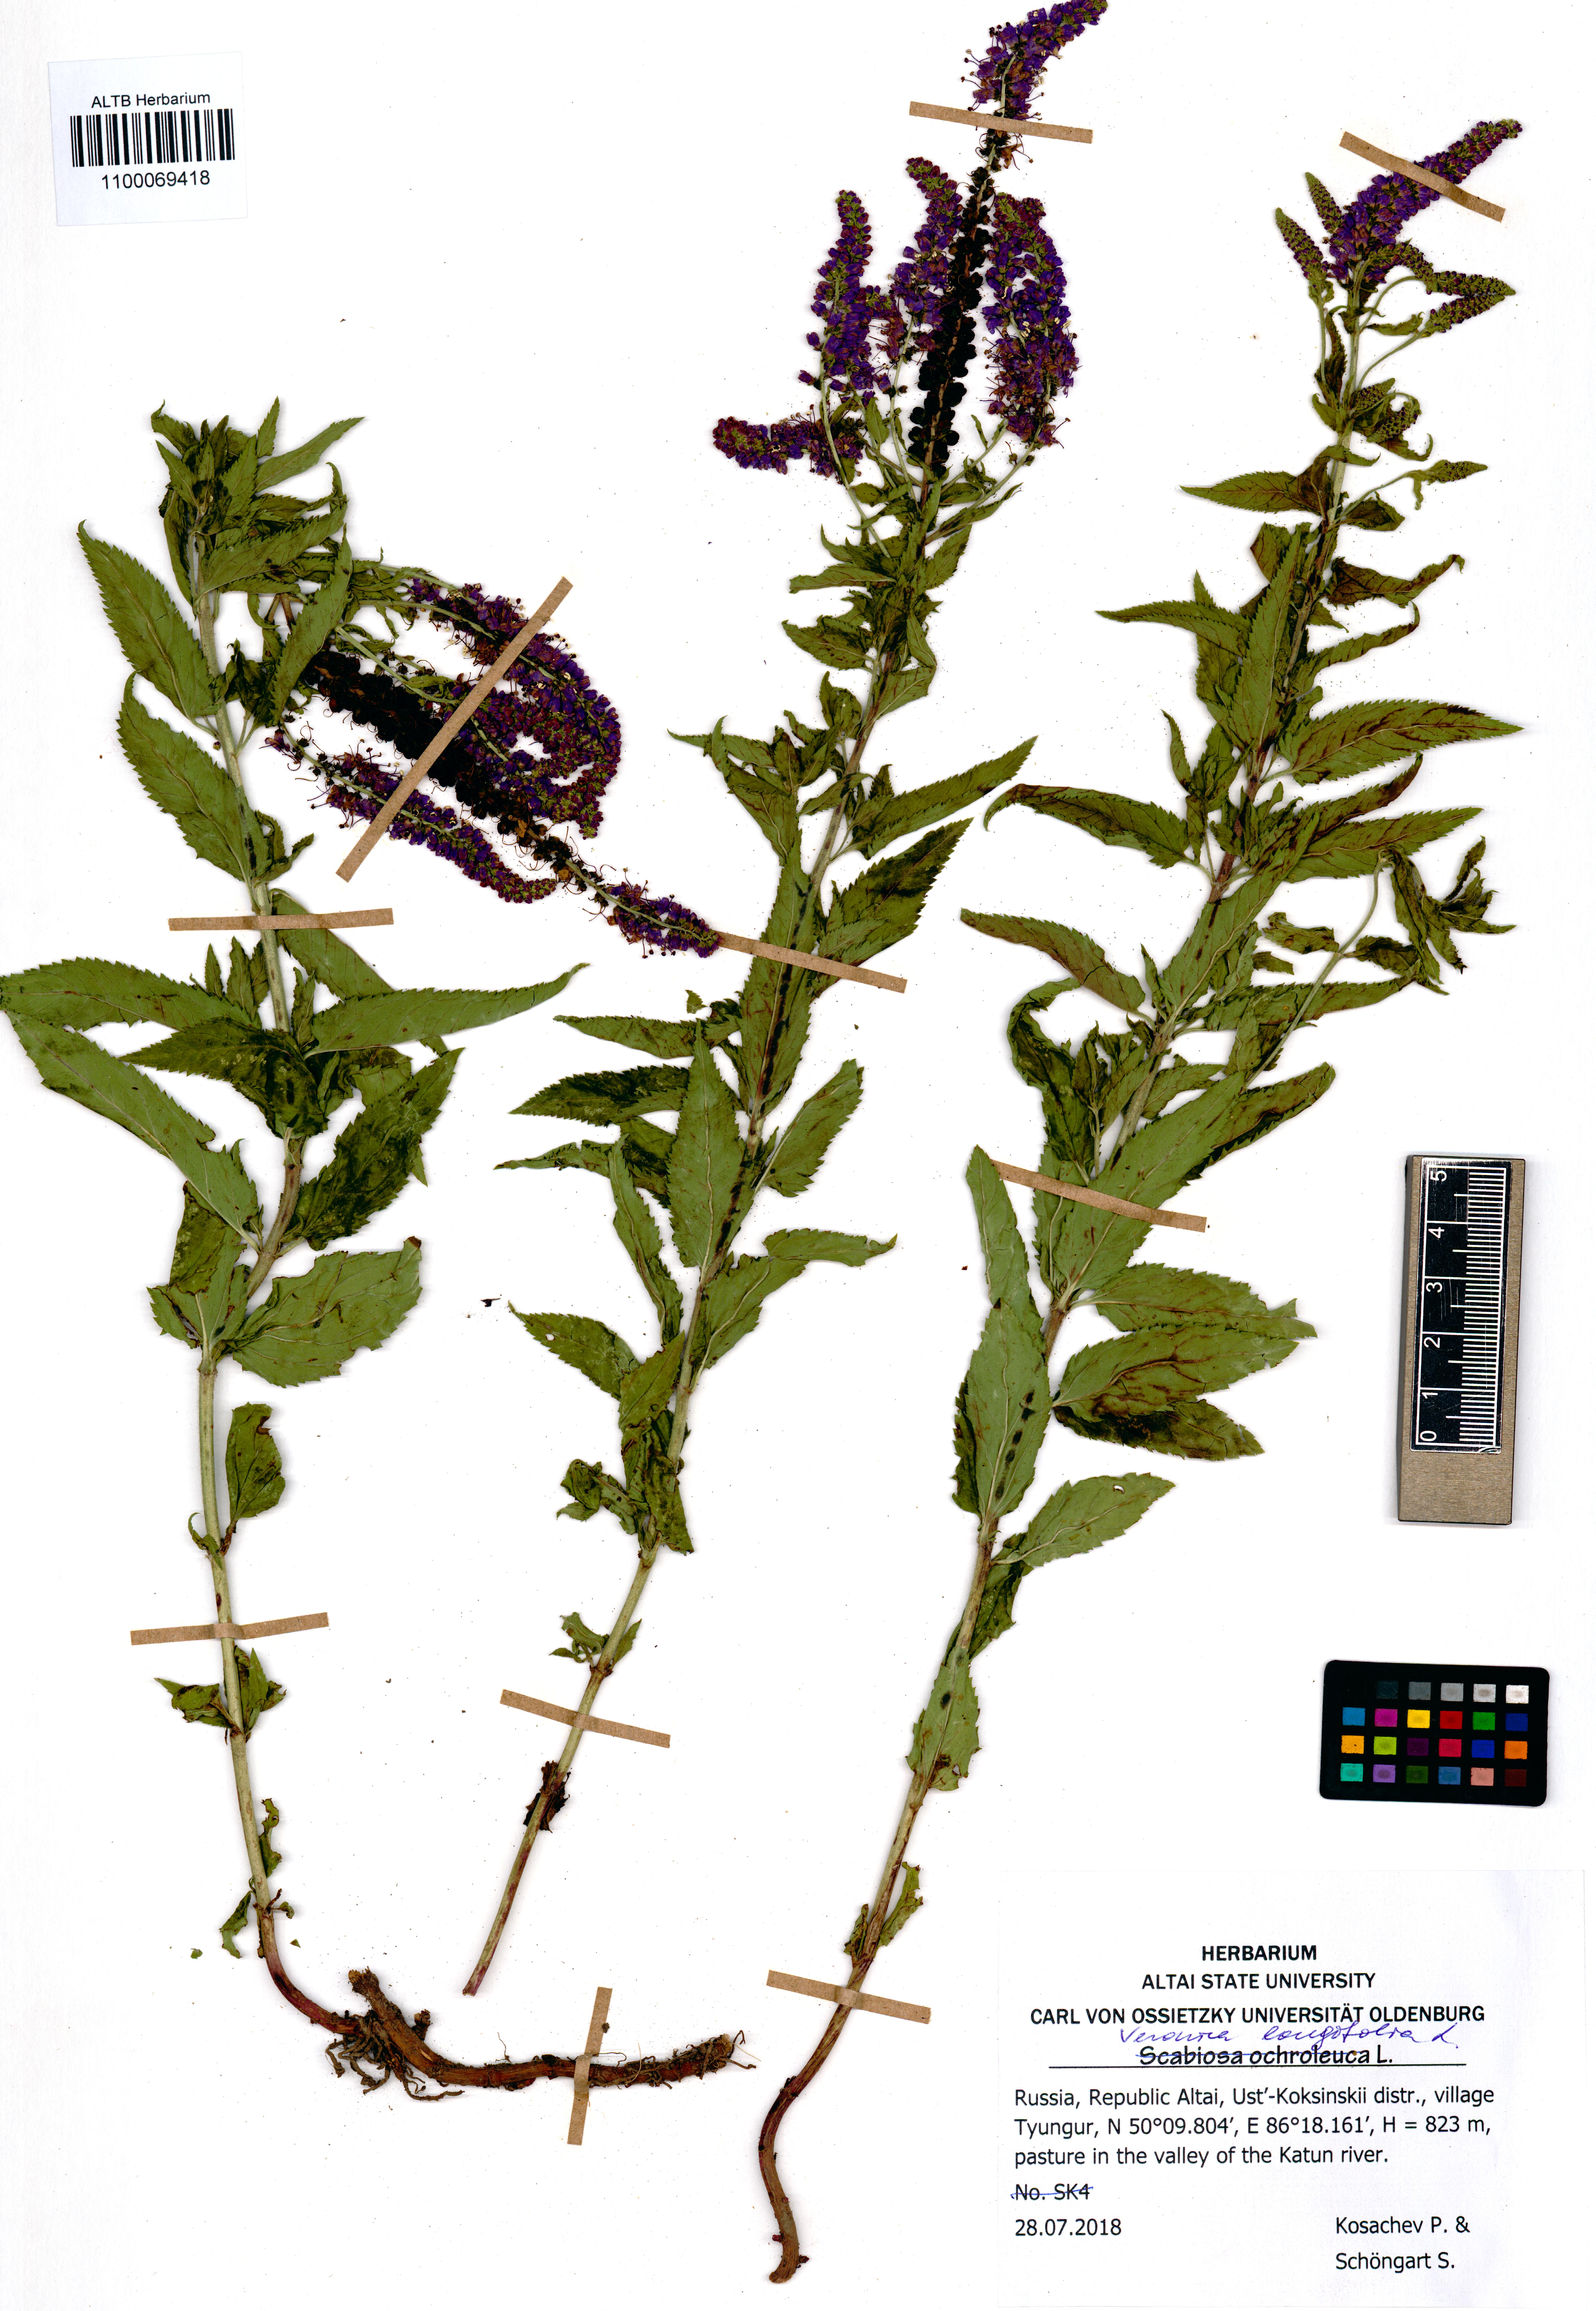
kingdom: Plantae
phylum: Tracheophyta
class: Magnoliopsida
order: Lamiales
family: Plantaginaceae
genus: Veronica
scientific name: Veronica longifolia
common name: Garden speedwell
